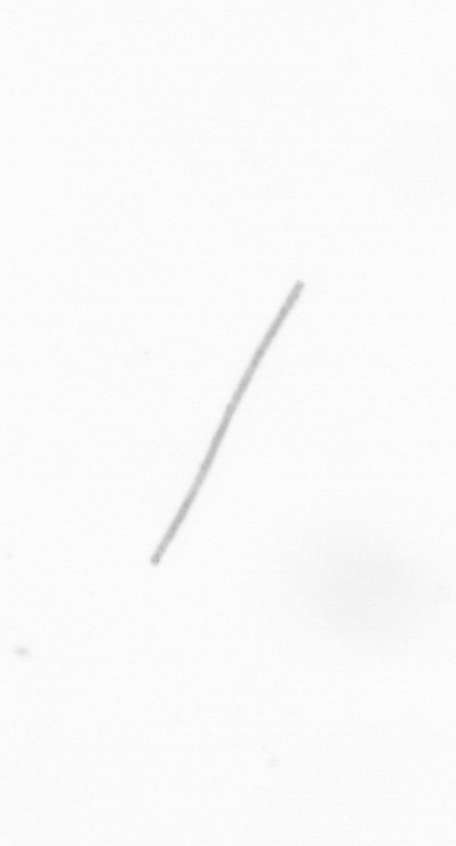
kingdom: Chromista
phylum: Ochrophyta
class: Bacillariophyceae
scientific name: Bacillariophyceae
